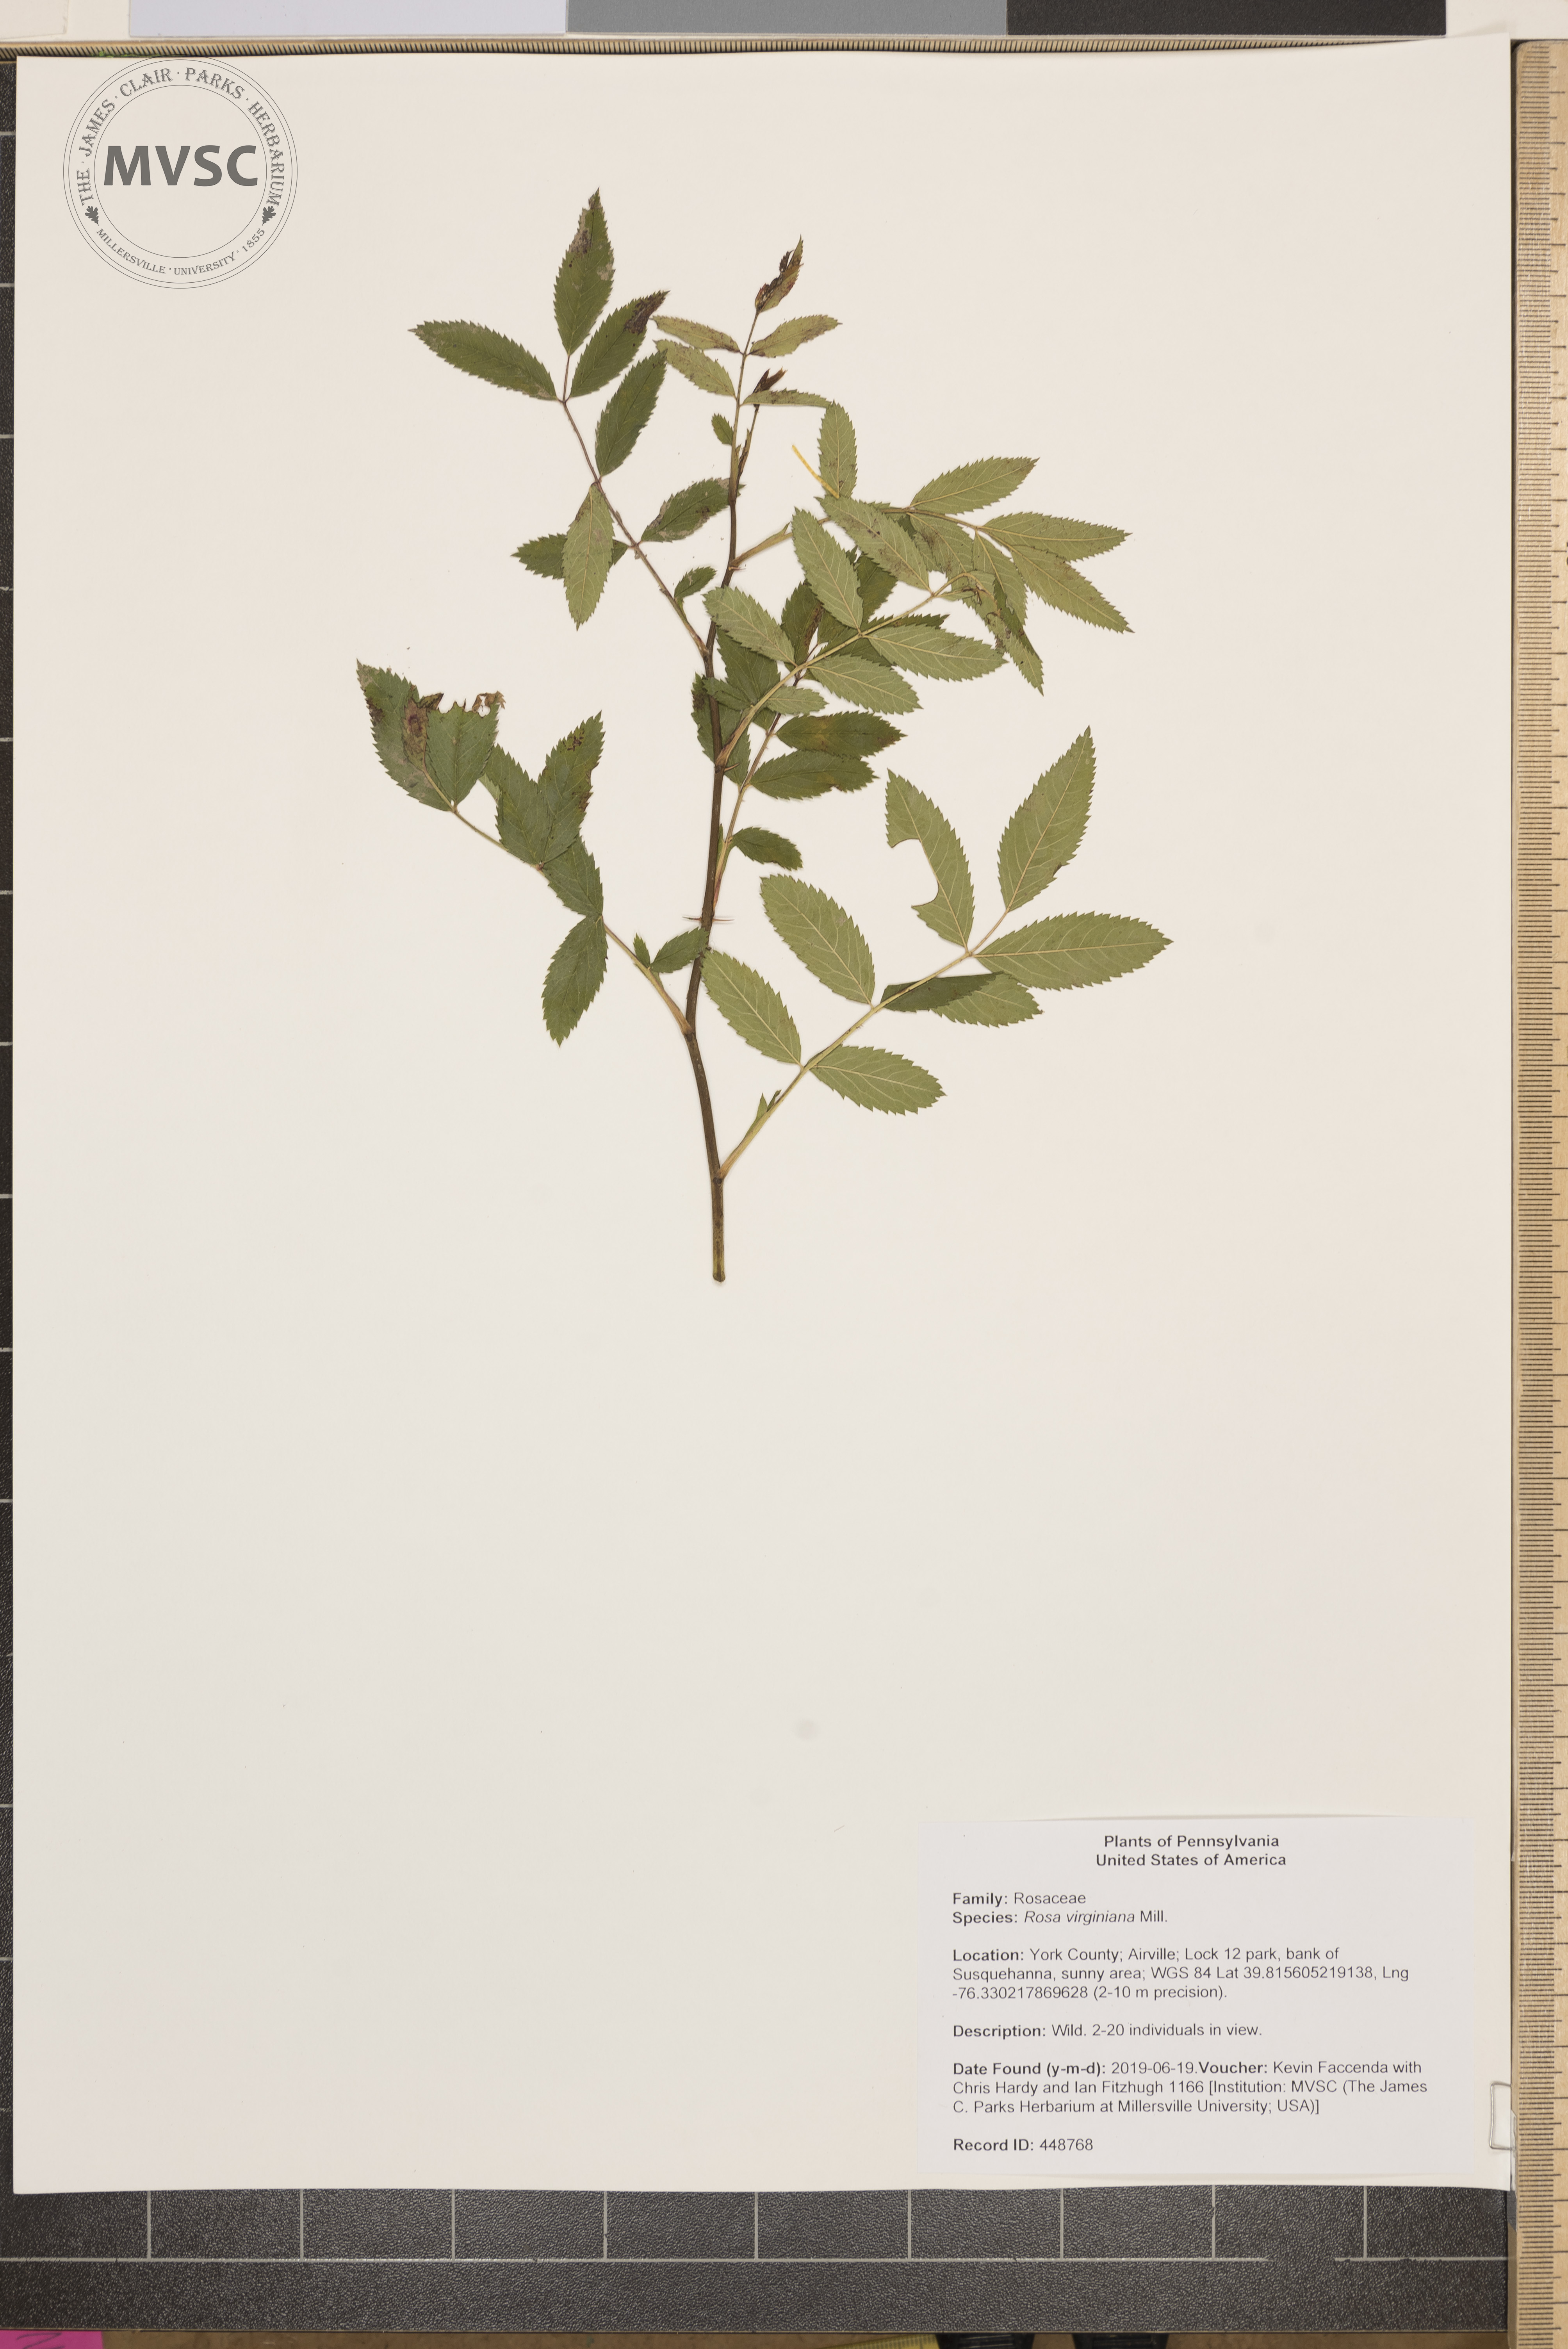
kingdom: Plantae
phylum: Tracheophyta
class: Magnoliopsida
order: Rosales
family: Rosaceae
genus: Rosa
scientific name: Rosa carolina
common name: Pasture rose
